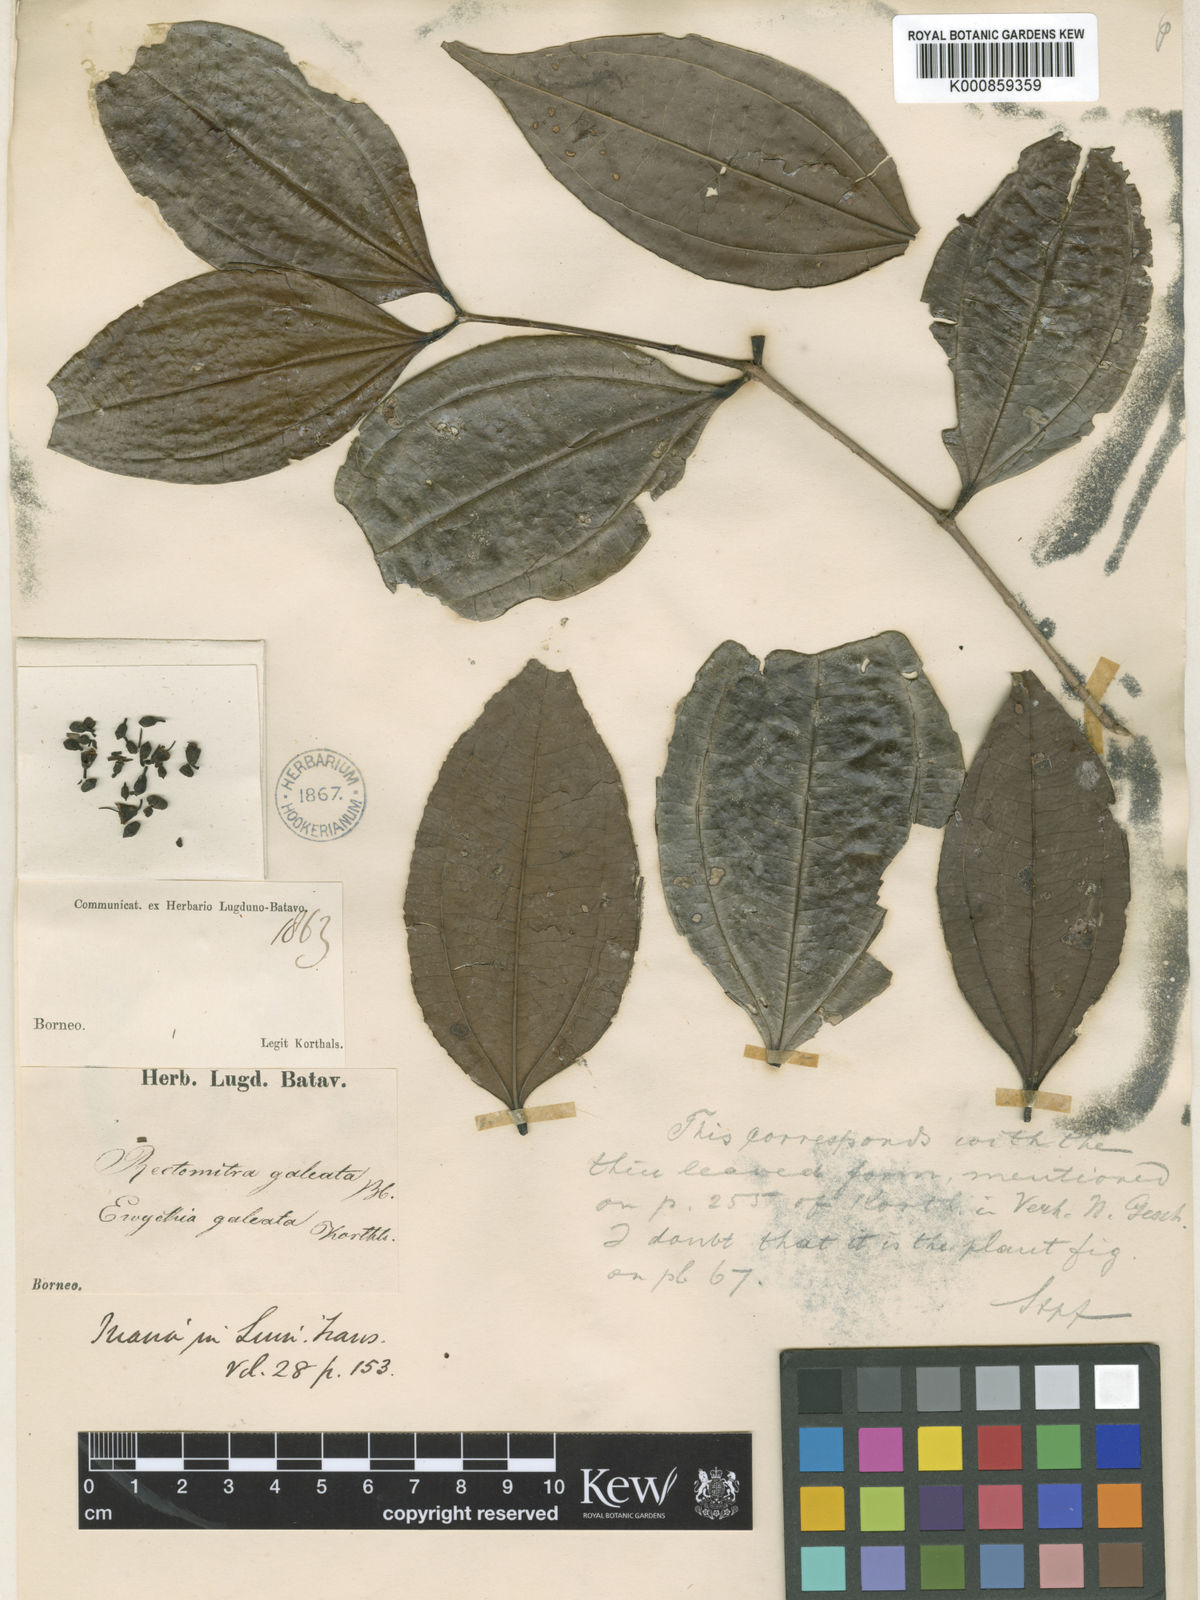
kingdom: Plantae
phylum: Tracheophyta
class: Magnoliopsida
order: Myrtales
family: Melastomataceae
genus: Pternandra
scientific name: Pternandra galeata
